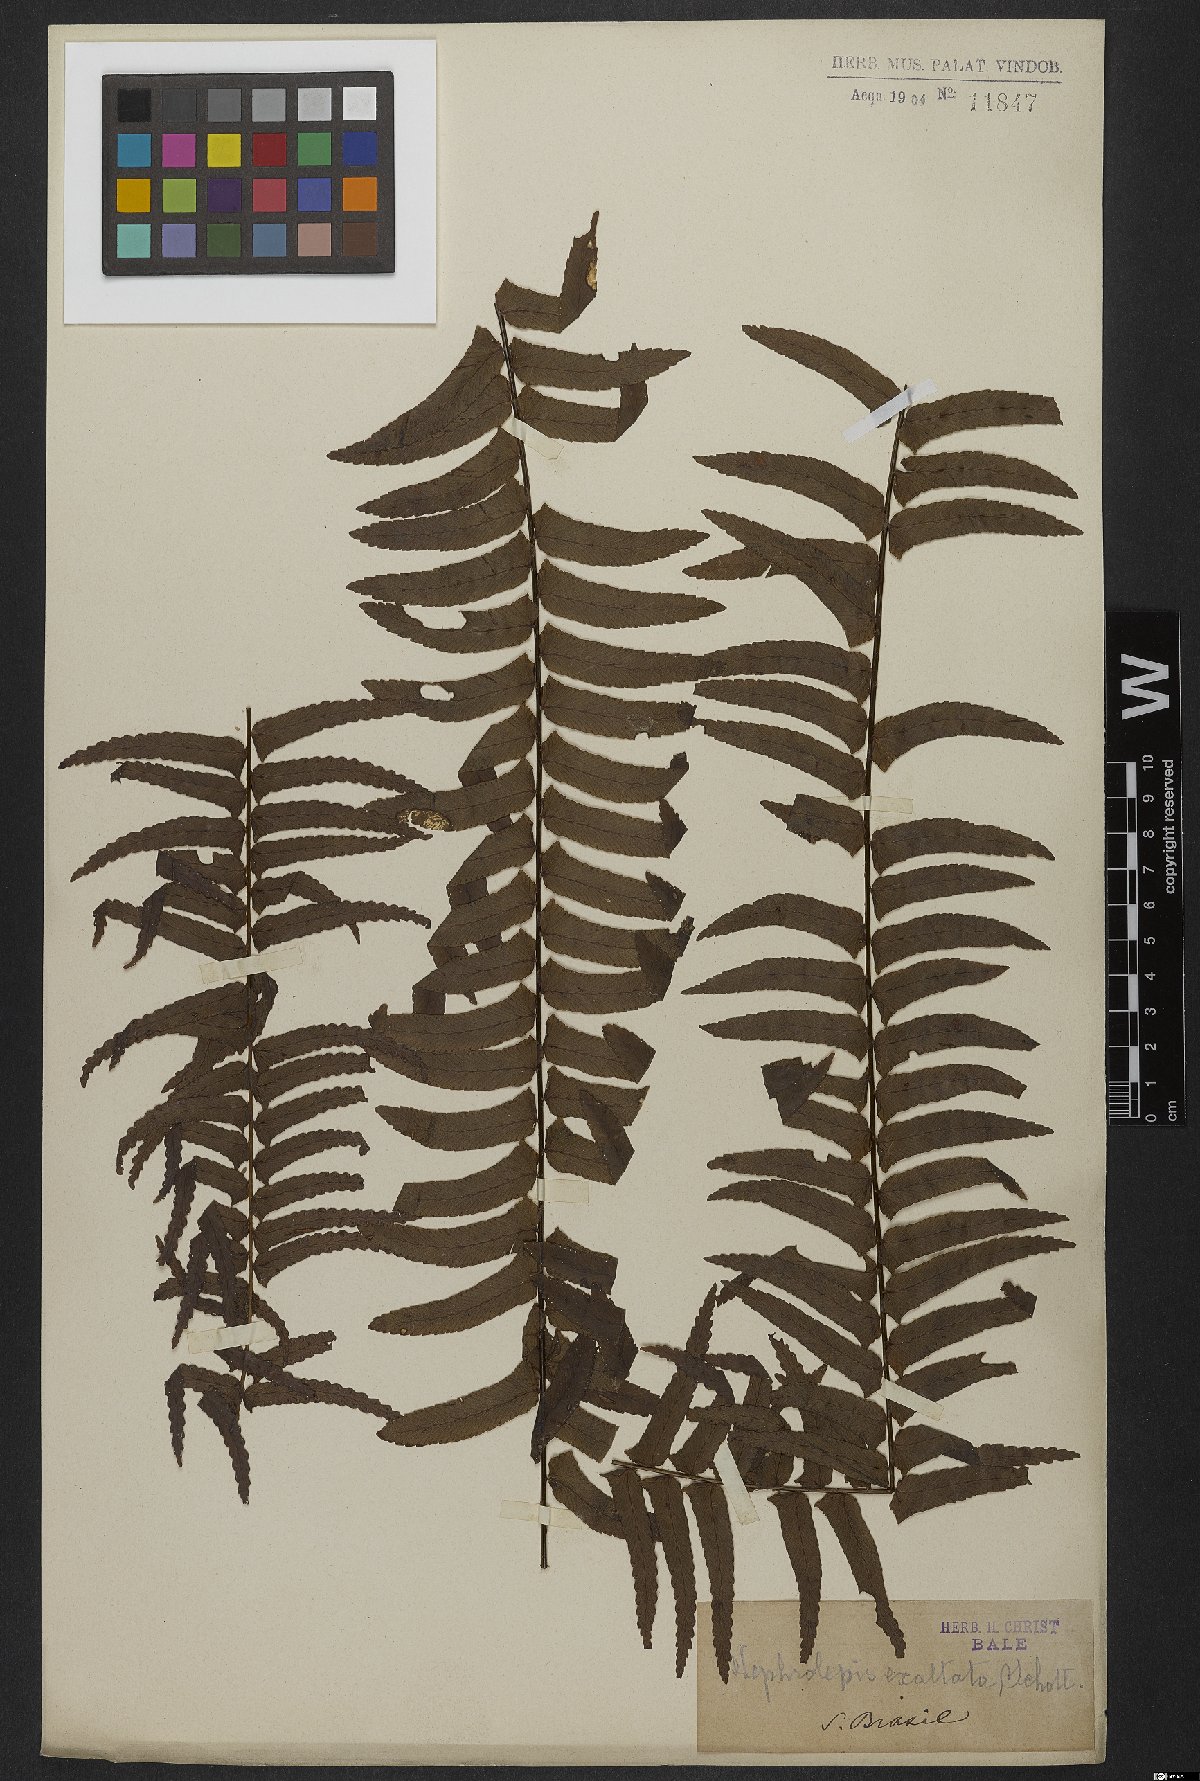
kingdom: Plantae
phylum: Tracheophyta
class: Polypodiopsida
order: Polypodiales
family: Nephrolepidaceae
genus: Nephrolepis
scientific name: Nephrolepis exaltata
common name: Sword fern
